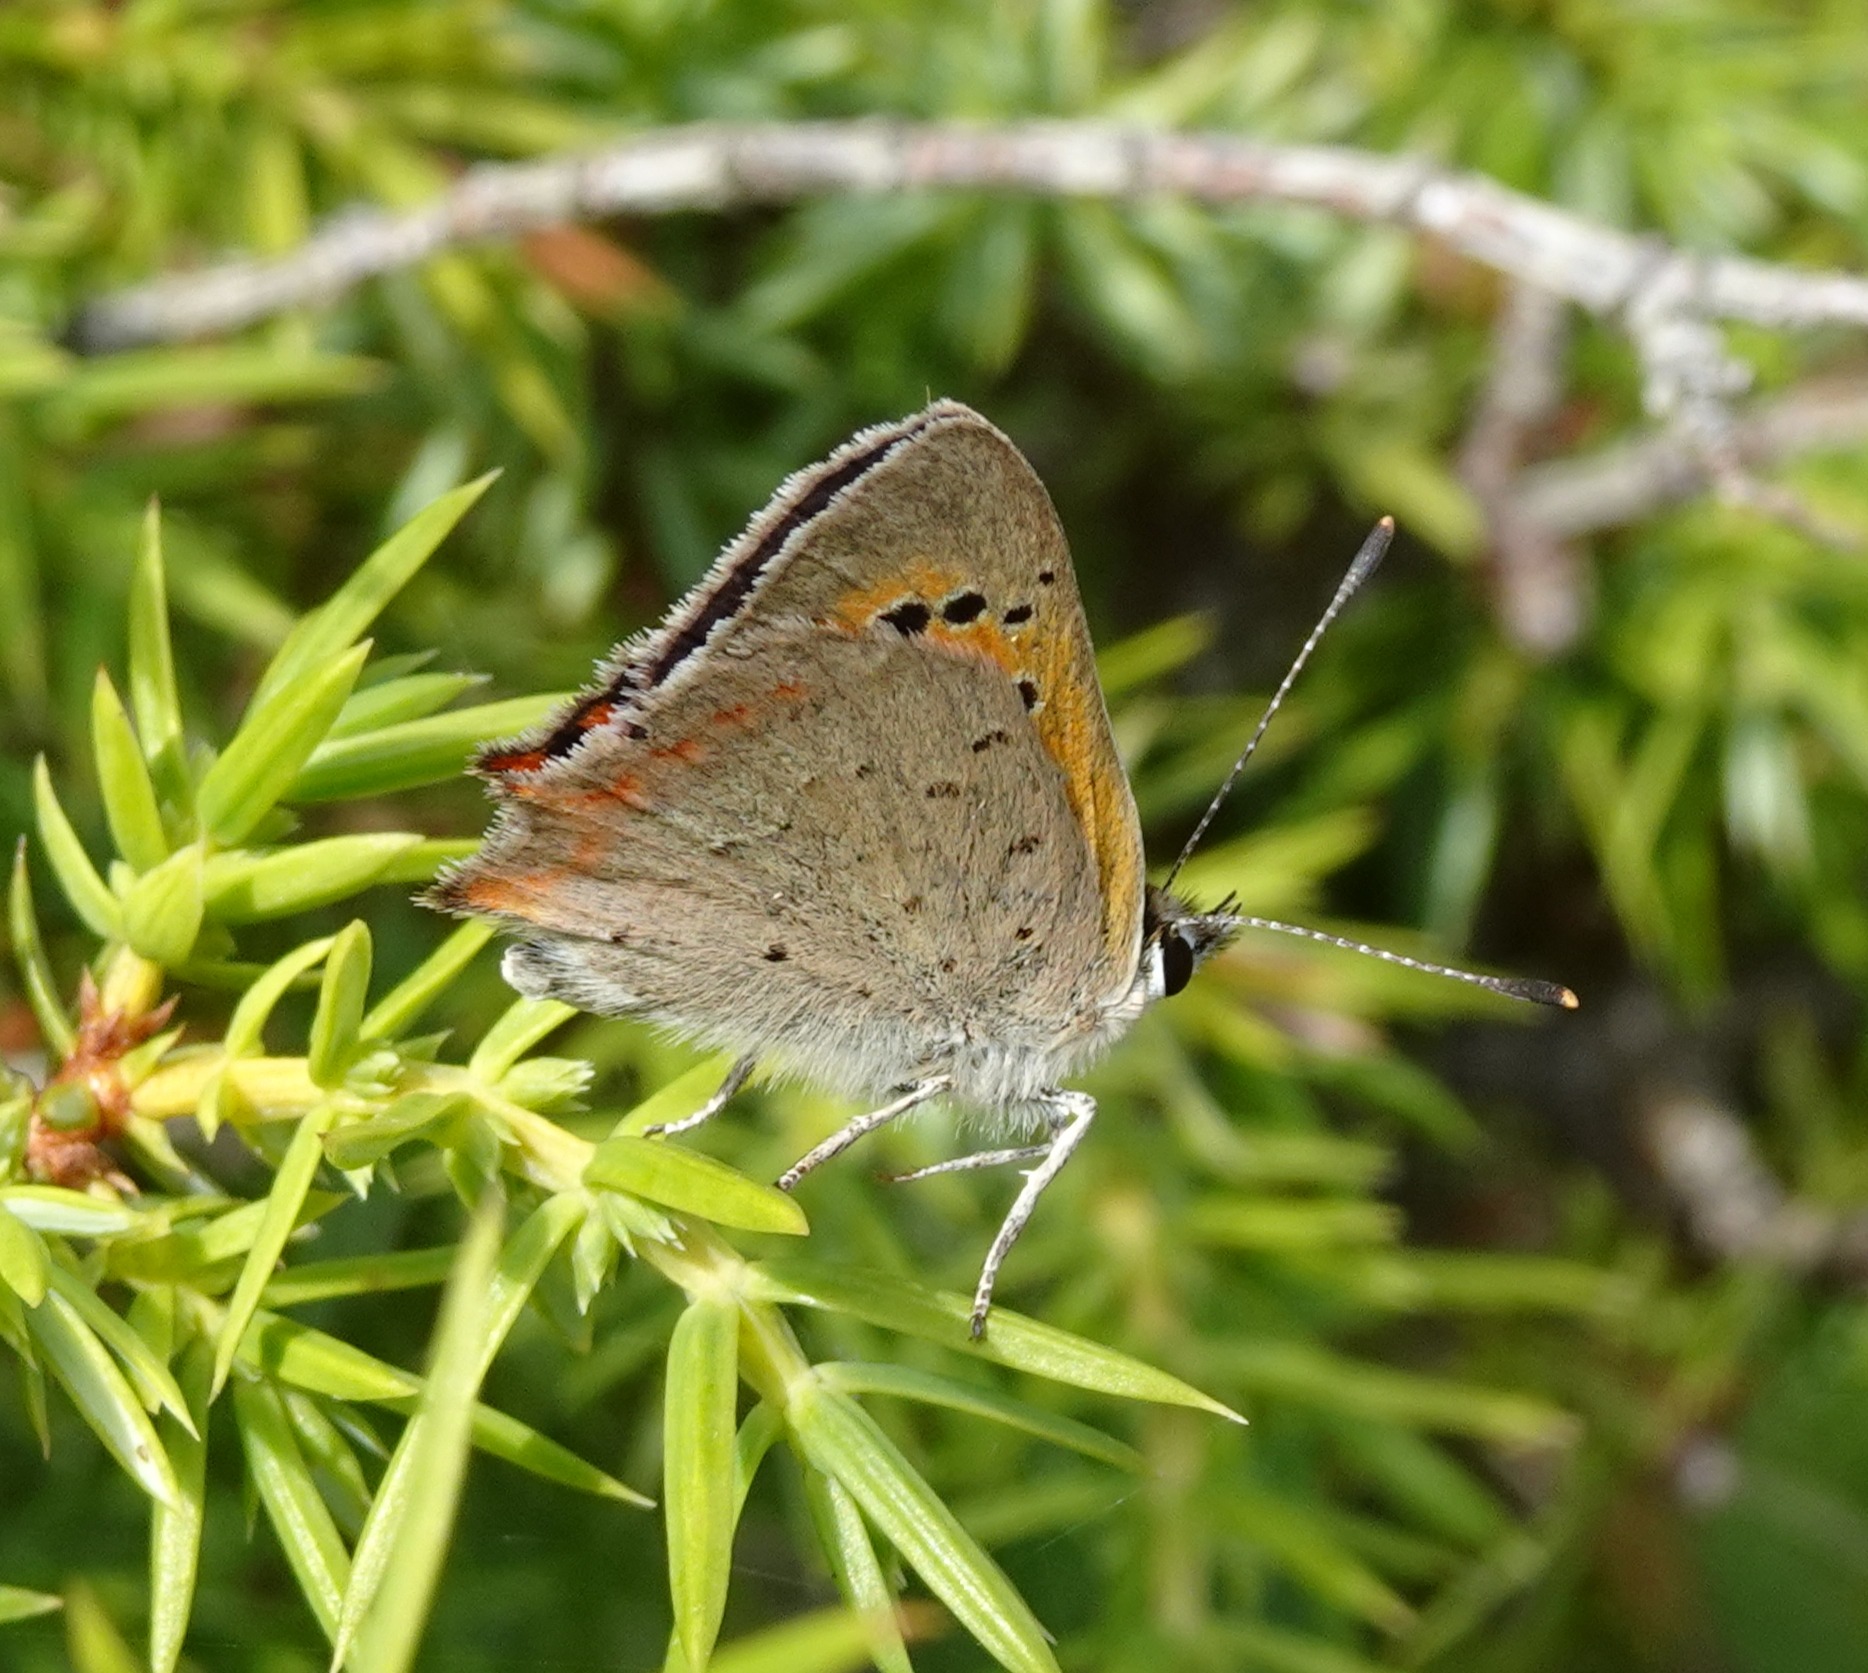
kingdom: Animalia
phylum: Arthropoda
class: Insecta
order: Lepidoptera
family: Lycaenidae
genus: Lycaena
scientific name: Lycaena phlaeas
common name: Lille ildfugl
